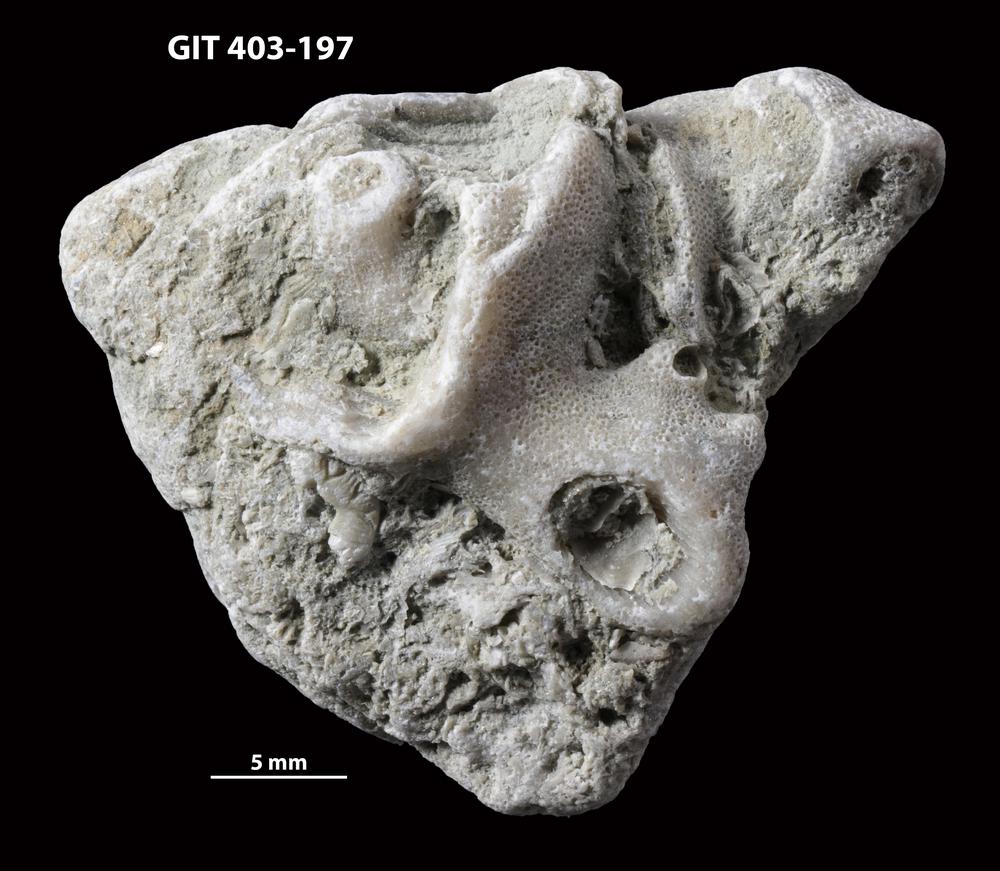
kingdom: Animalia
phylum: Bryozoa
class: Stenolaemata
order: Cystoporida
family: Fistuliporidae
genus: Fistulipora
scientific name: Fistulipora przhidolensis
